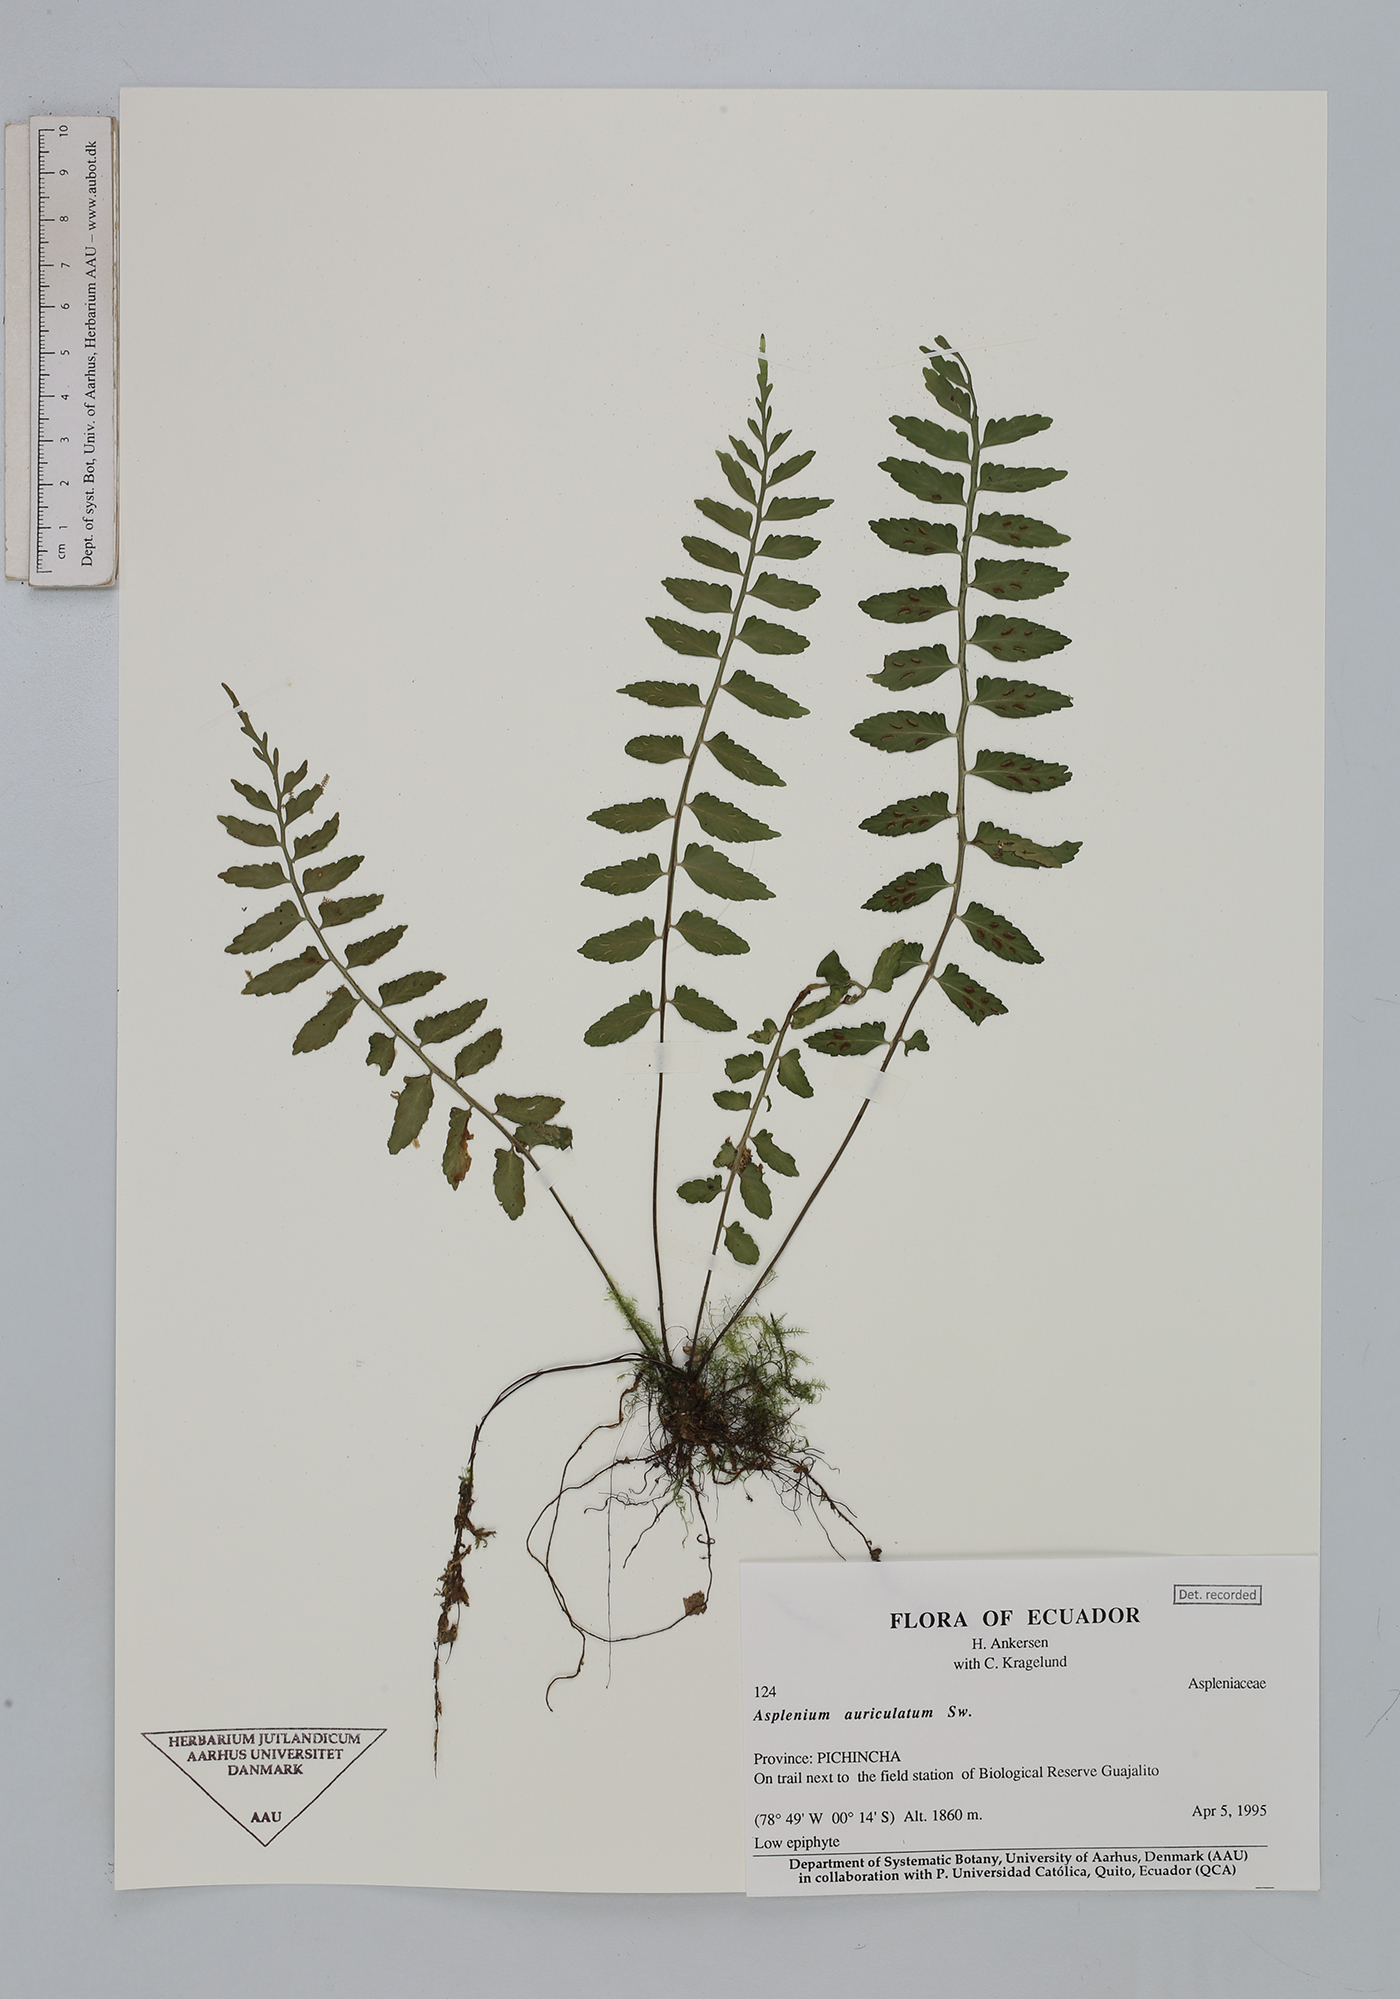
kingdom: Plantae
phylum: Tracheophyta
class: Polypodiopsida
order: Polypodiales
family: Aspleniaceae
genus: Asplenium
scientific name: Asplenium auriculatum
